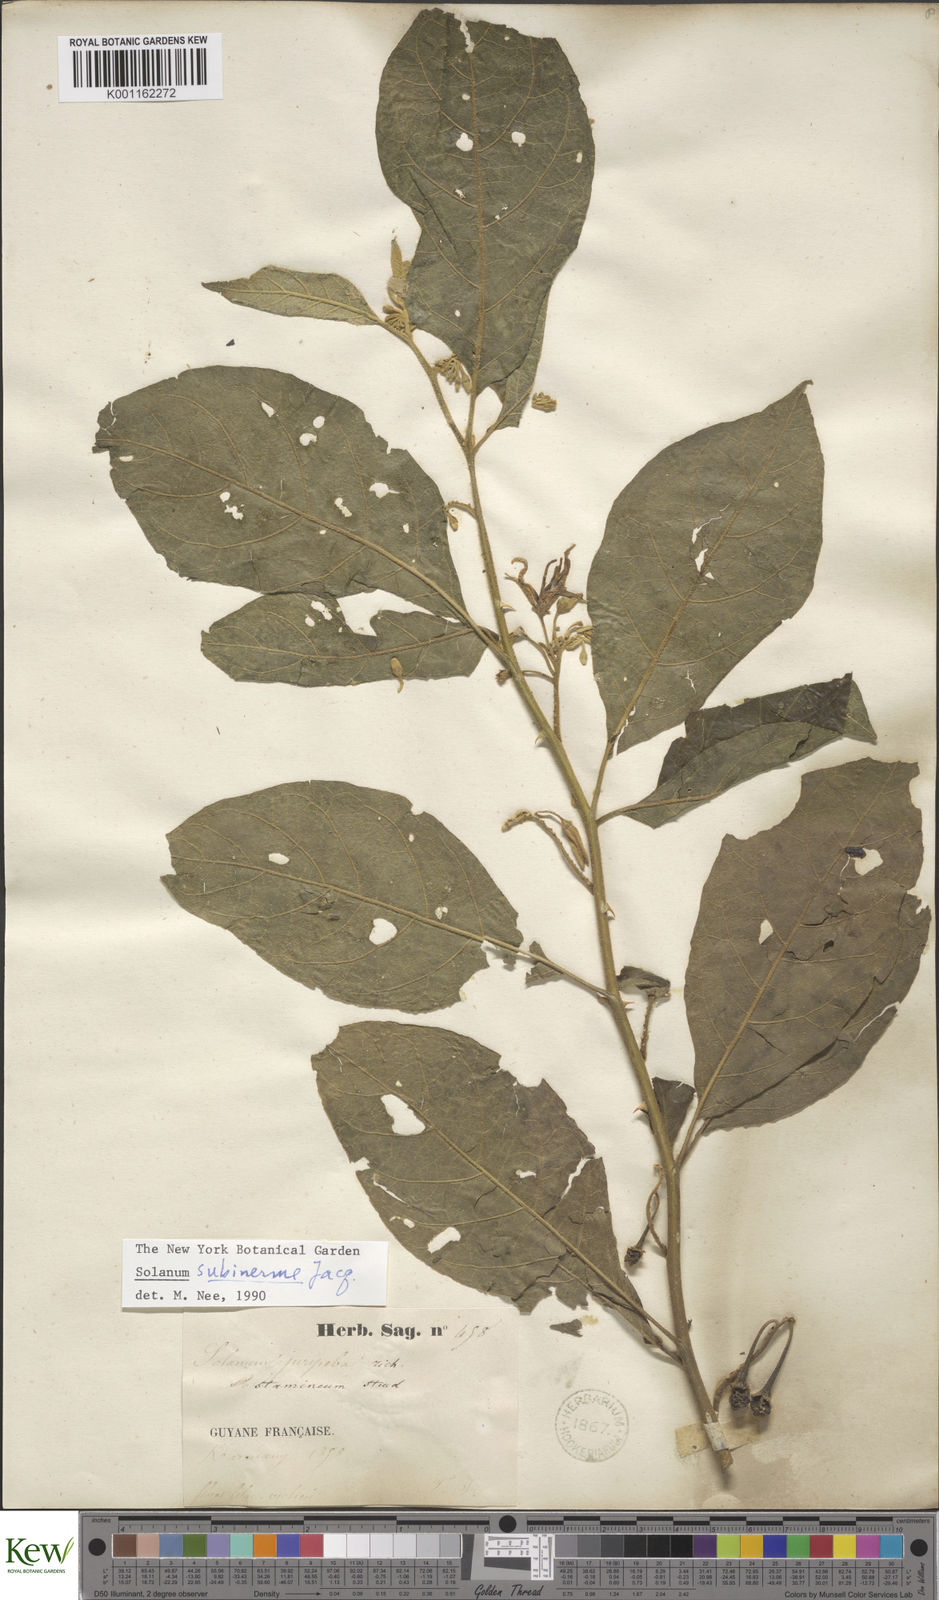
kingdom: Plantae
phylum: Tracheophyta
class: Magnoliopsida
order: Solanales
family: Solanaceae
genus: Solanum
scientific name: Solanum subinerme
